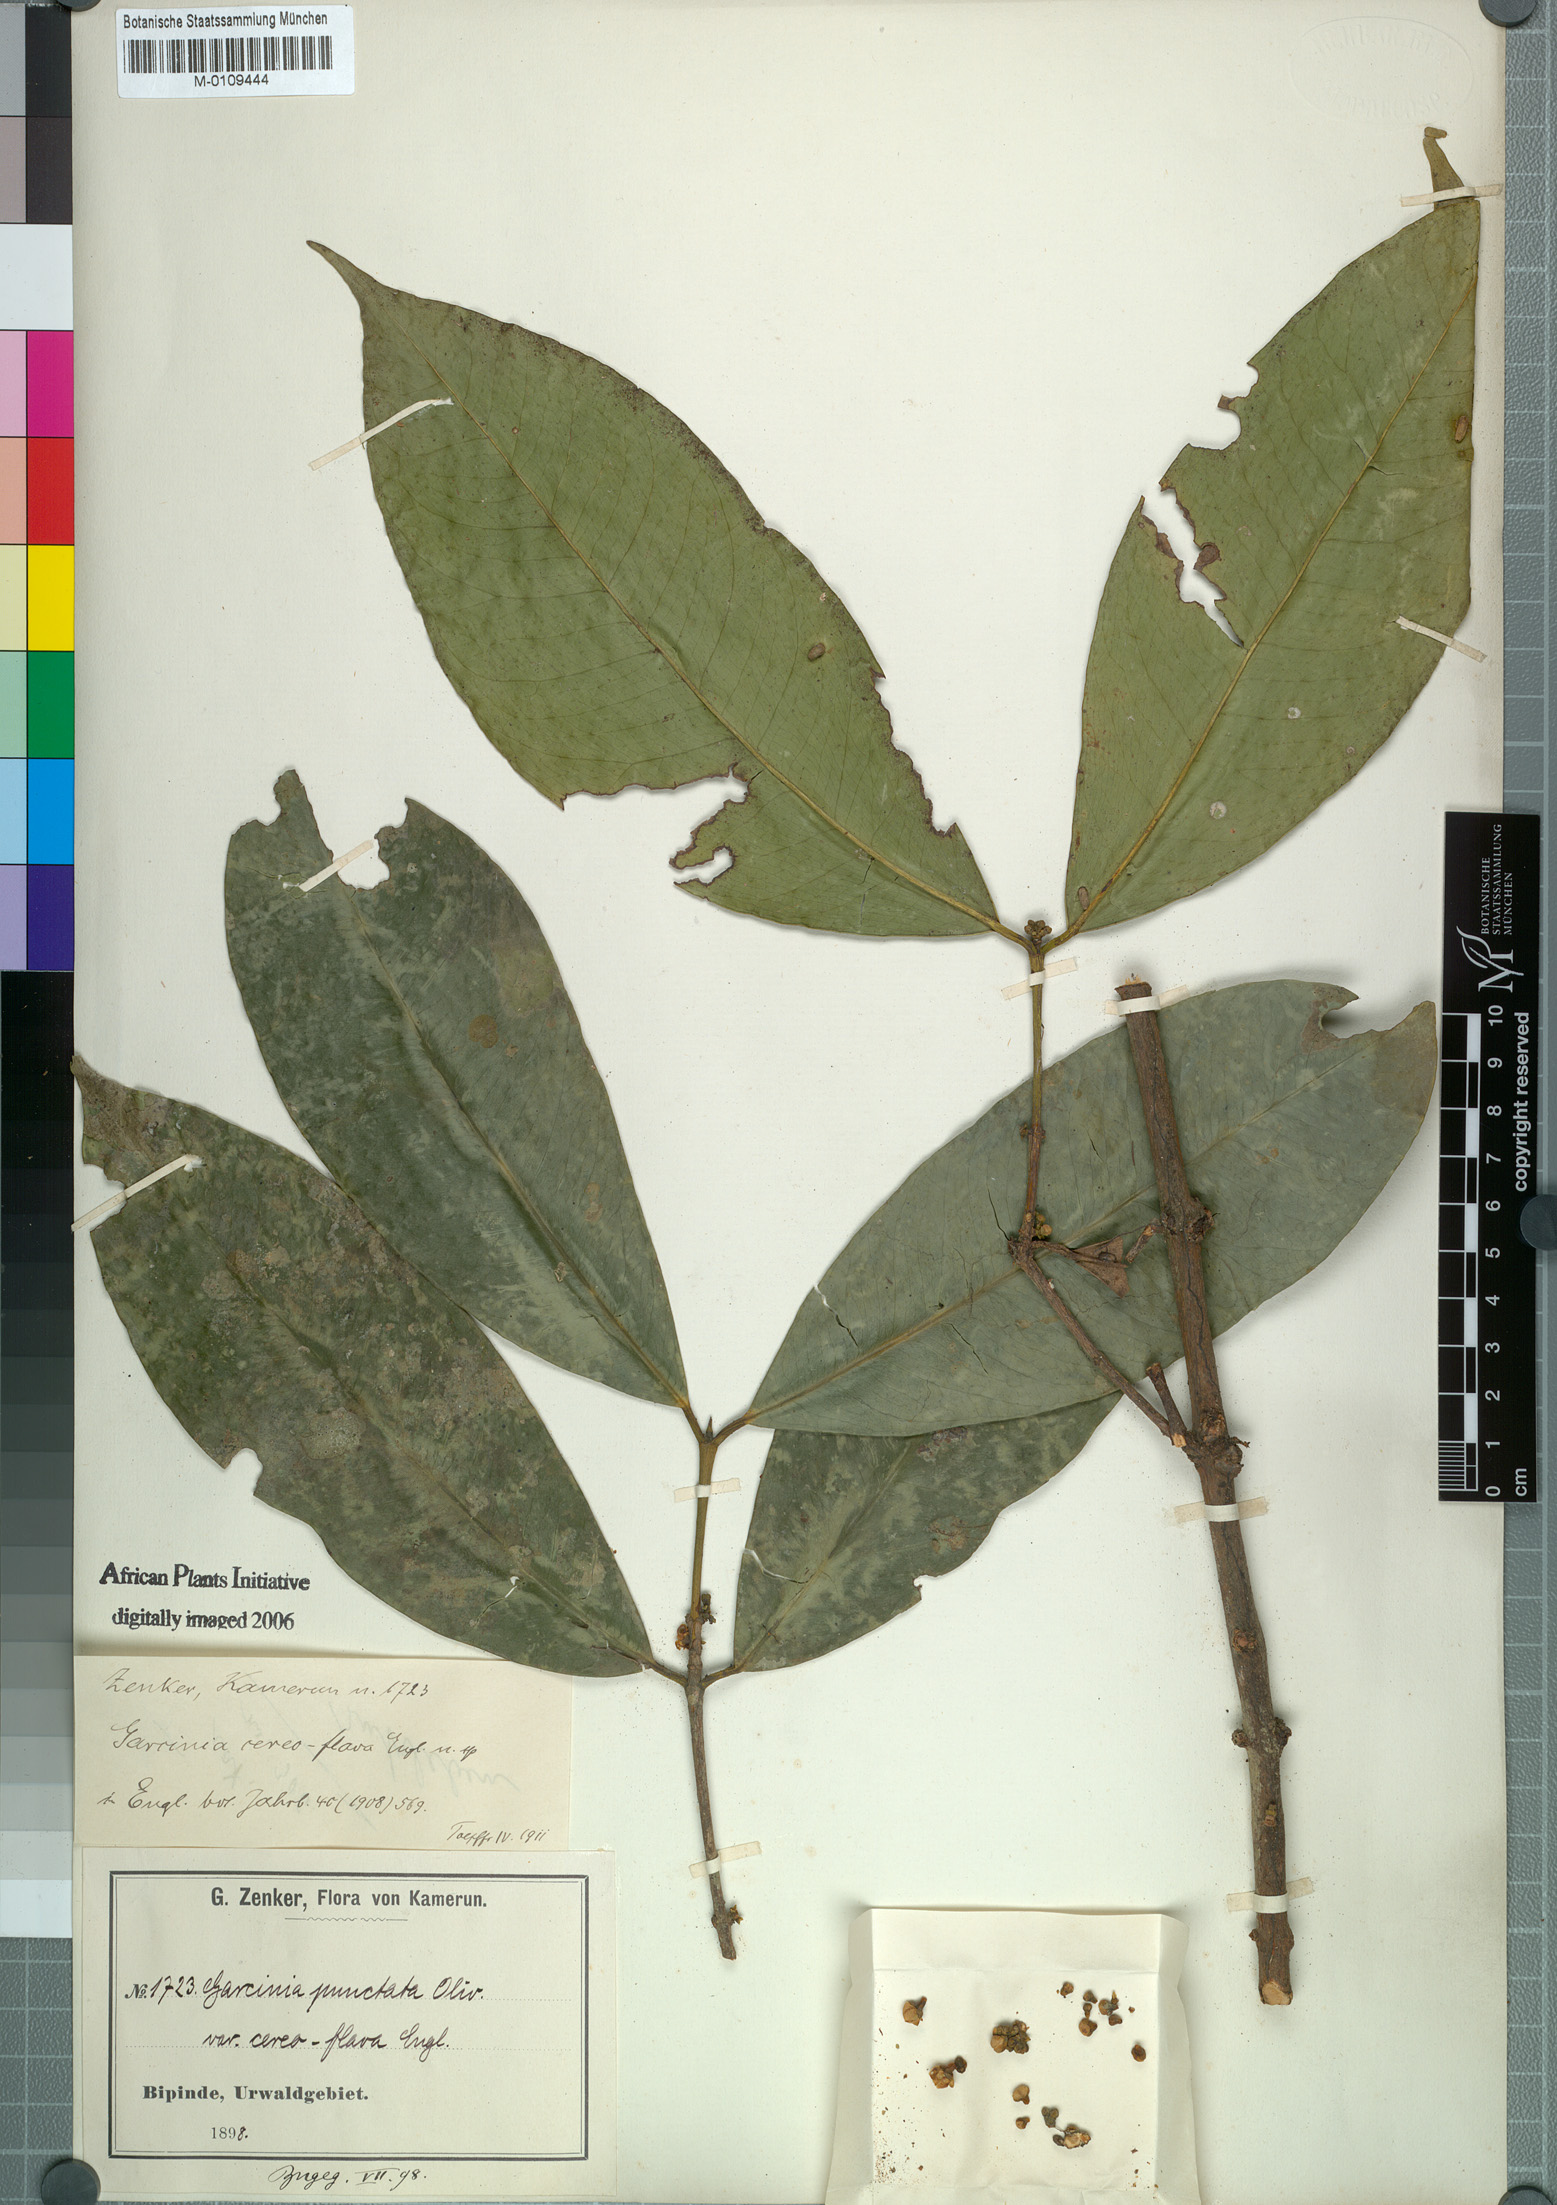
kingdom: Plantae
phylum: Tracheophyta
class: Magnoliopsida
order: Malpighiales
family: Clusiaceae
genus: Garcinia
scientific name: Garcinia epunctata
